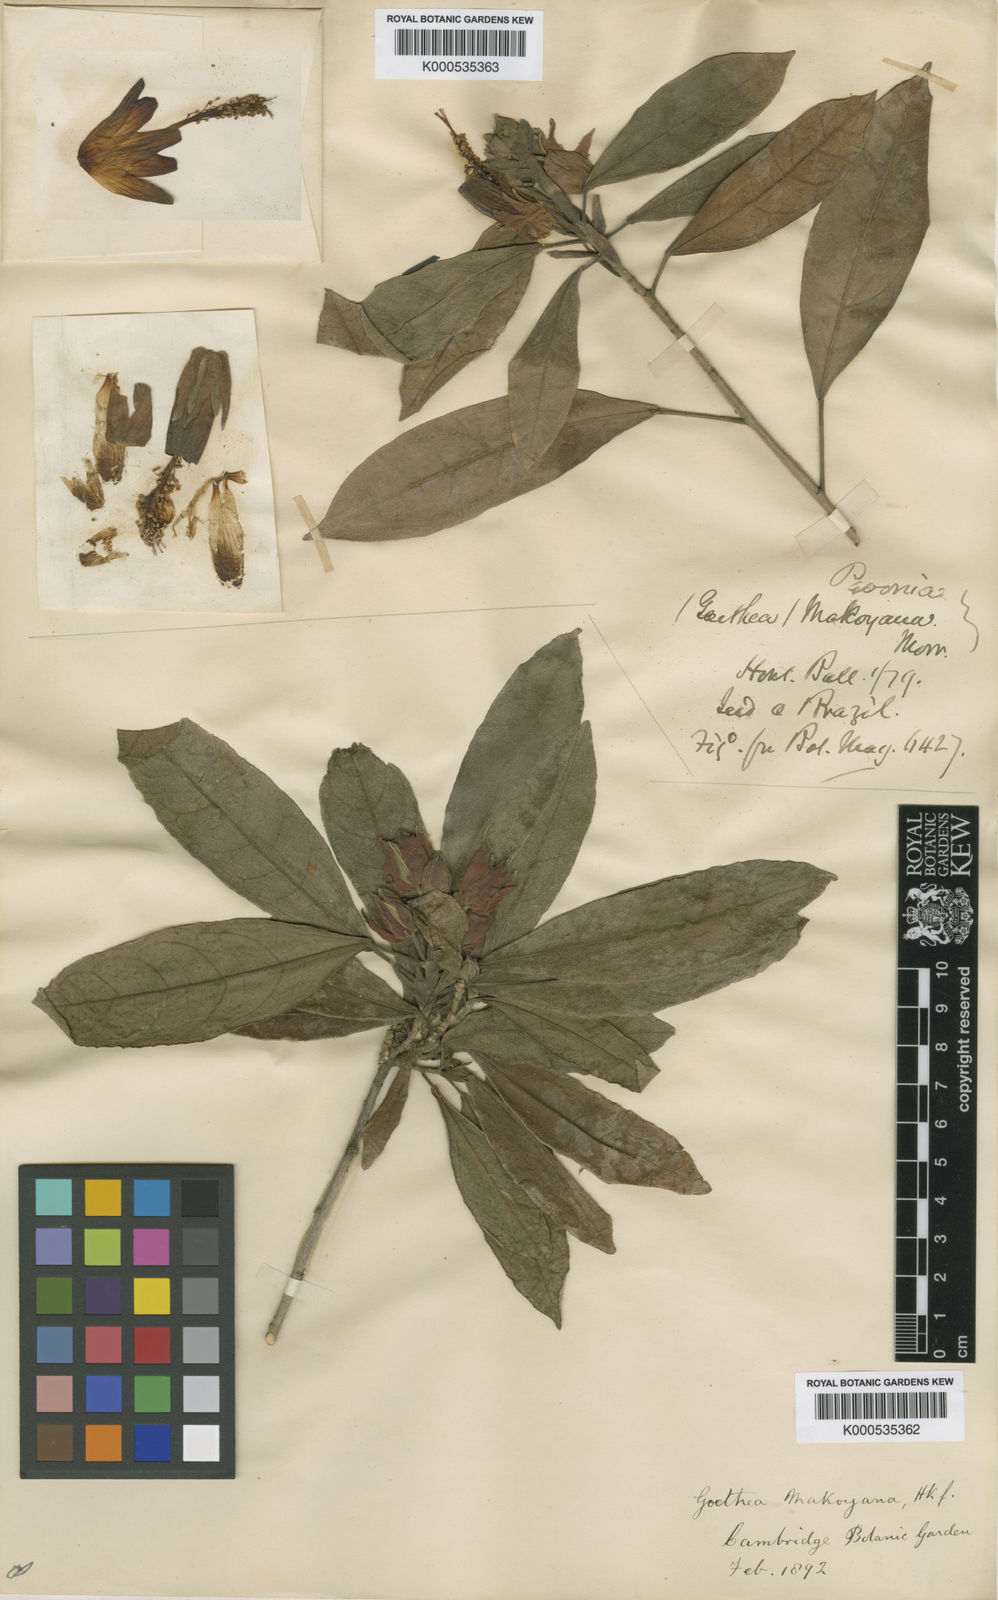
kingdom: Plantae
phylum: Tracheophyta
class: Magnoliopsida
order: Malvales
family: Malvaceae
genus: Pavonia
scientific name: Pavonia makoyana
